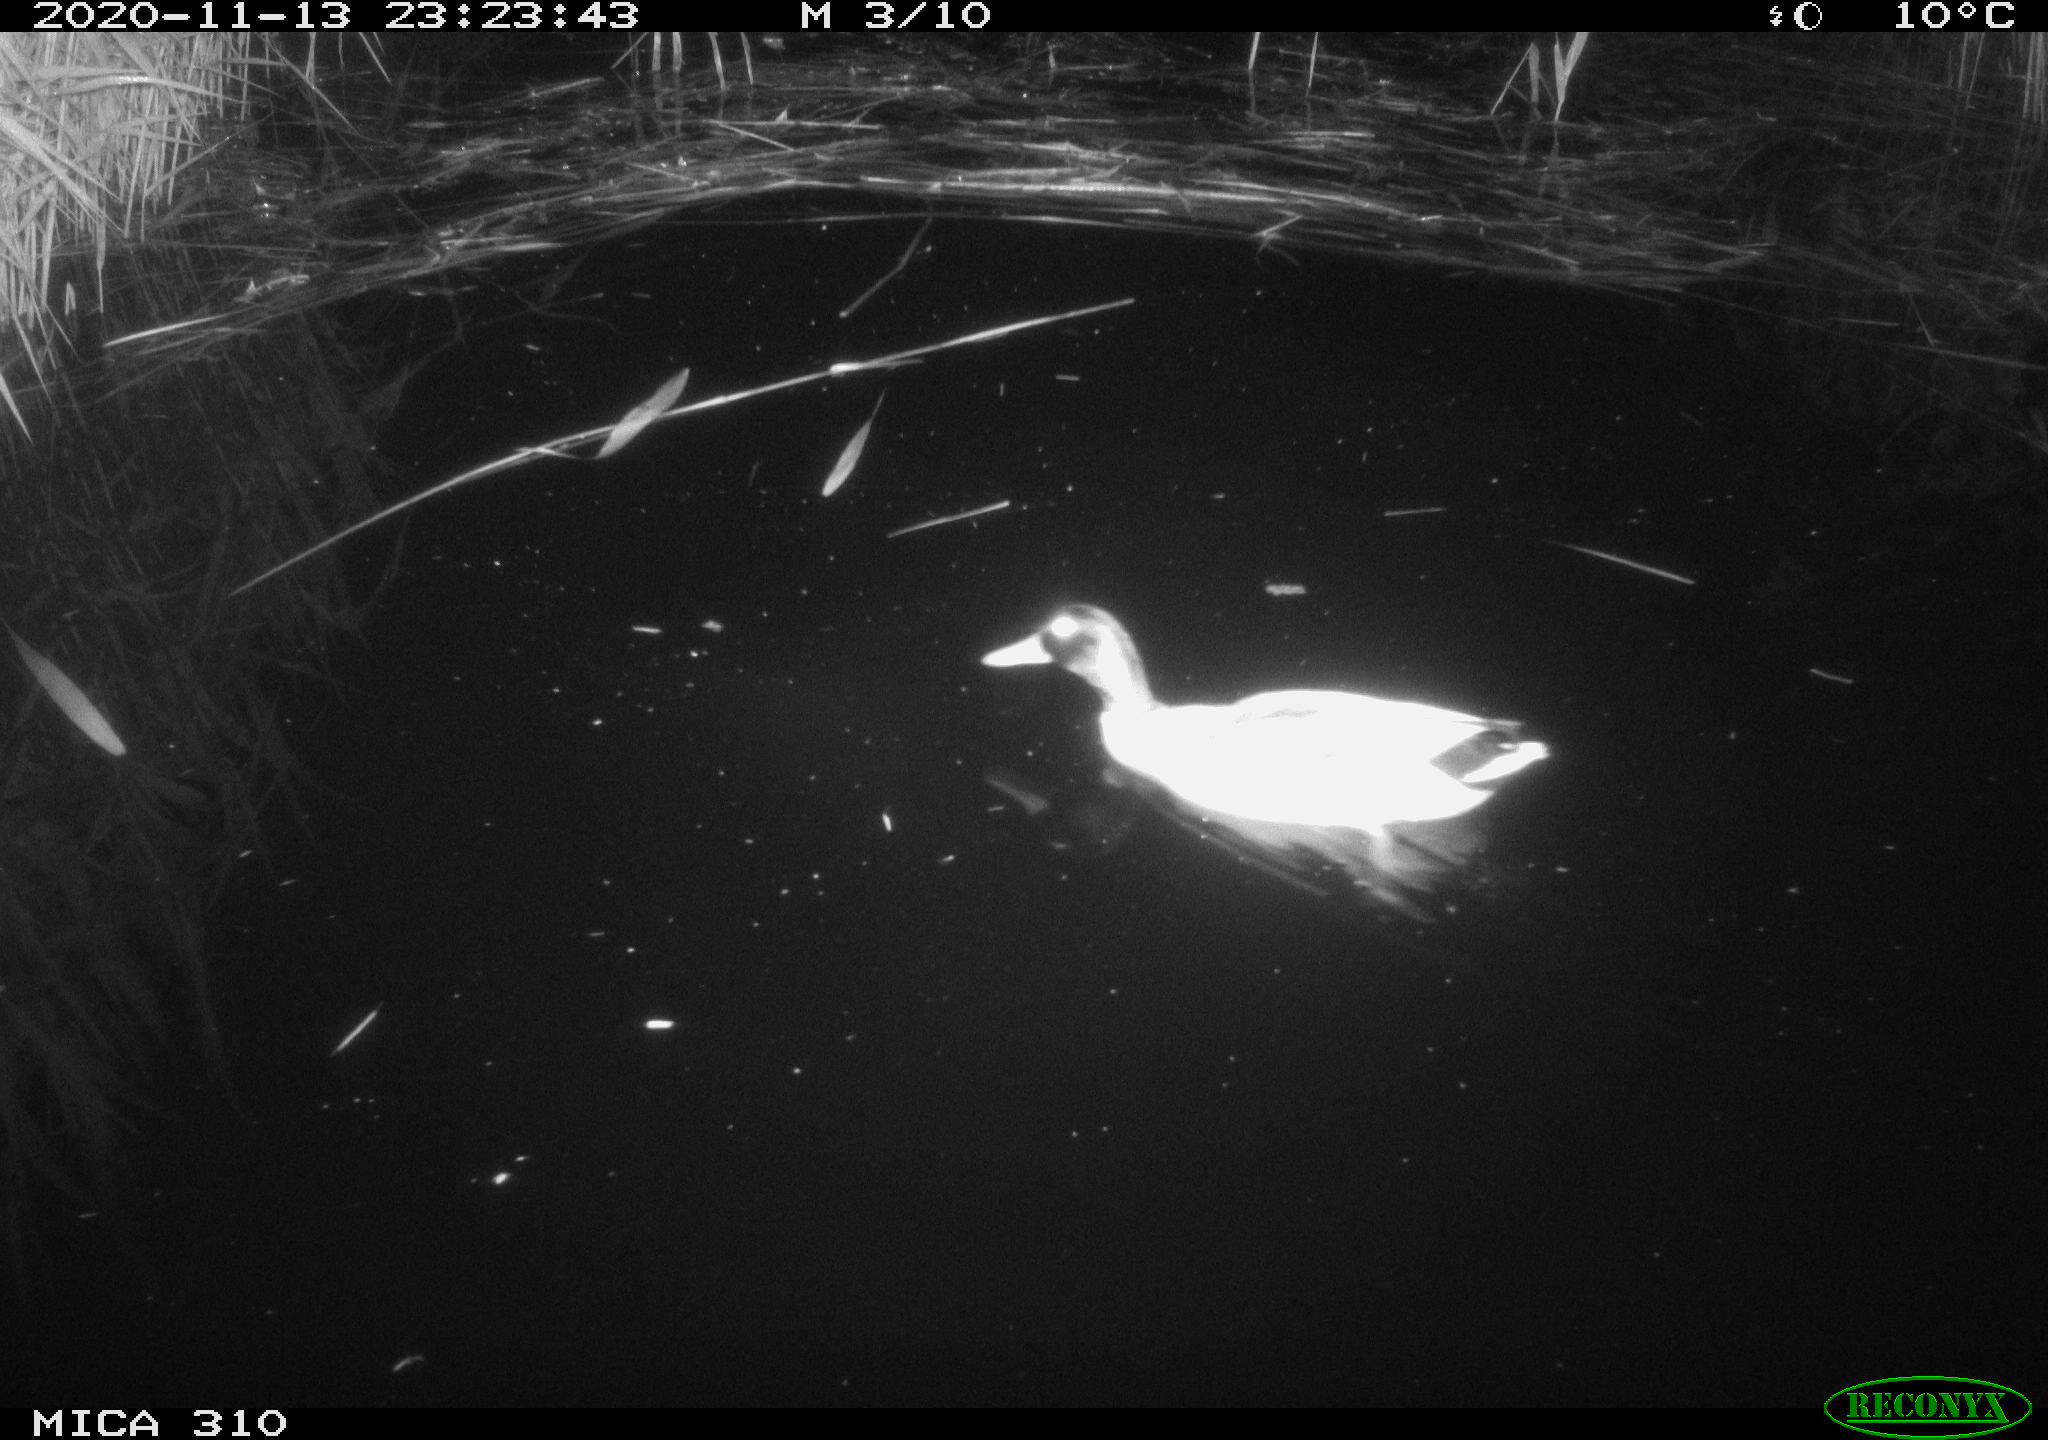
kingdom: Animalia
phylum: Chordata
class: Aves
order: Anseriformes
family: Anatidae
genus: Anas
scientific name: Anas platyrhynchos
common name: Mallard
